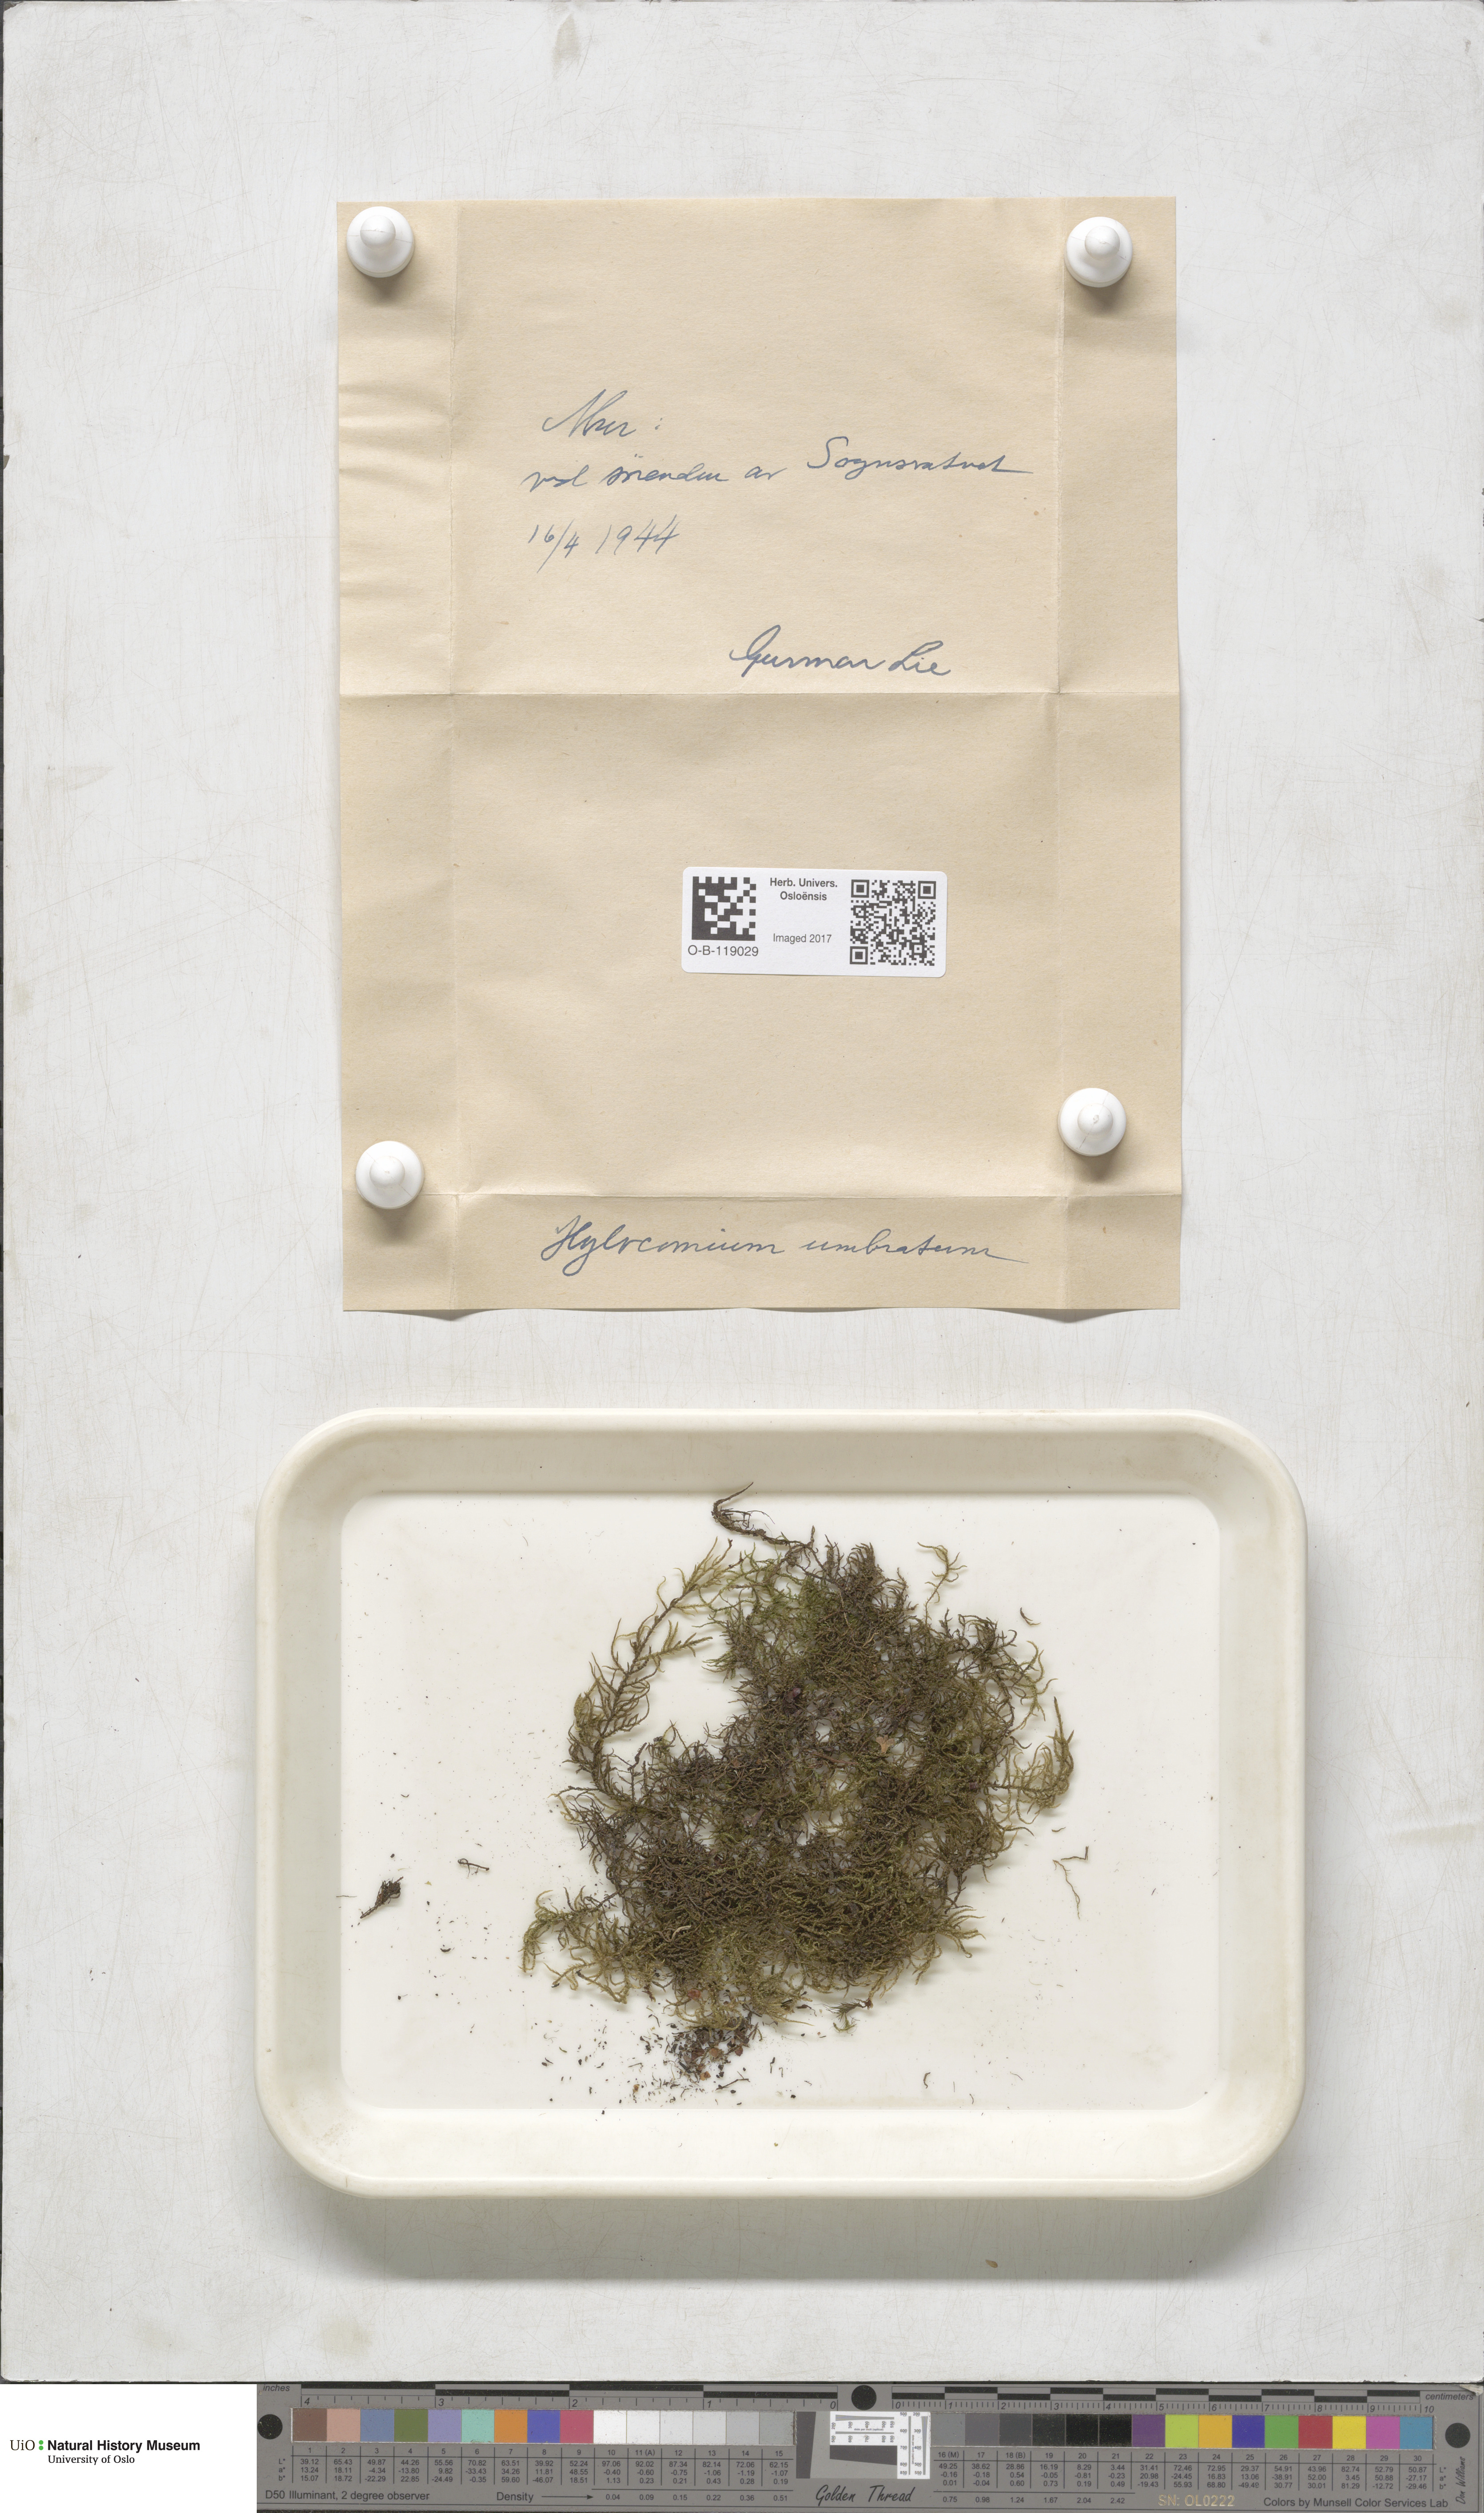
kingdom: Plantae
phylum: Bryophyta
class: Bryopsida
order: Hypnales
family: Hylocomiaceae
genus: Hylocomiastrum
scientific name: Hylocomiastrum umbratum
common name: Shaded woods moss
